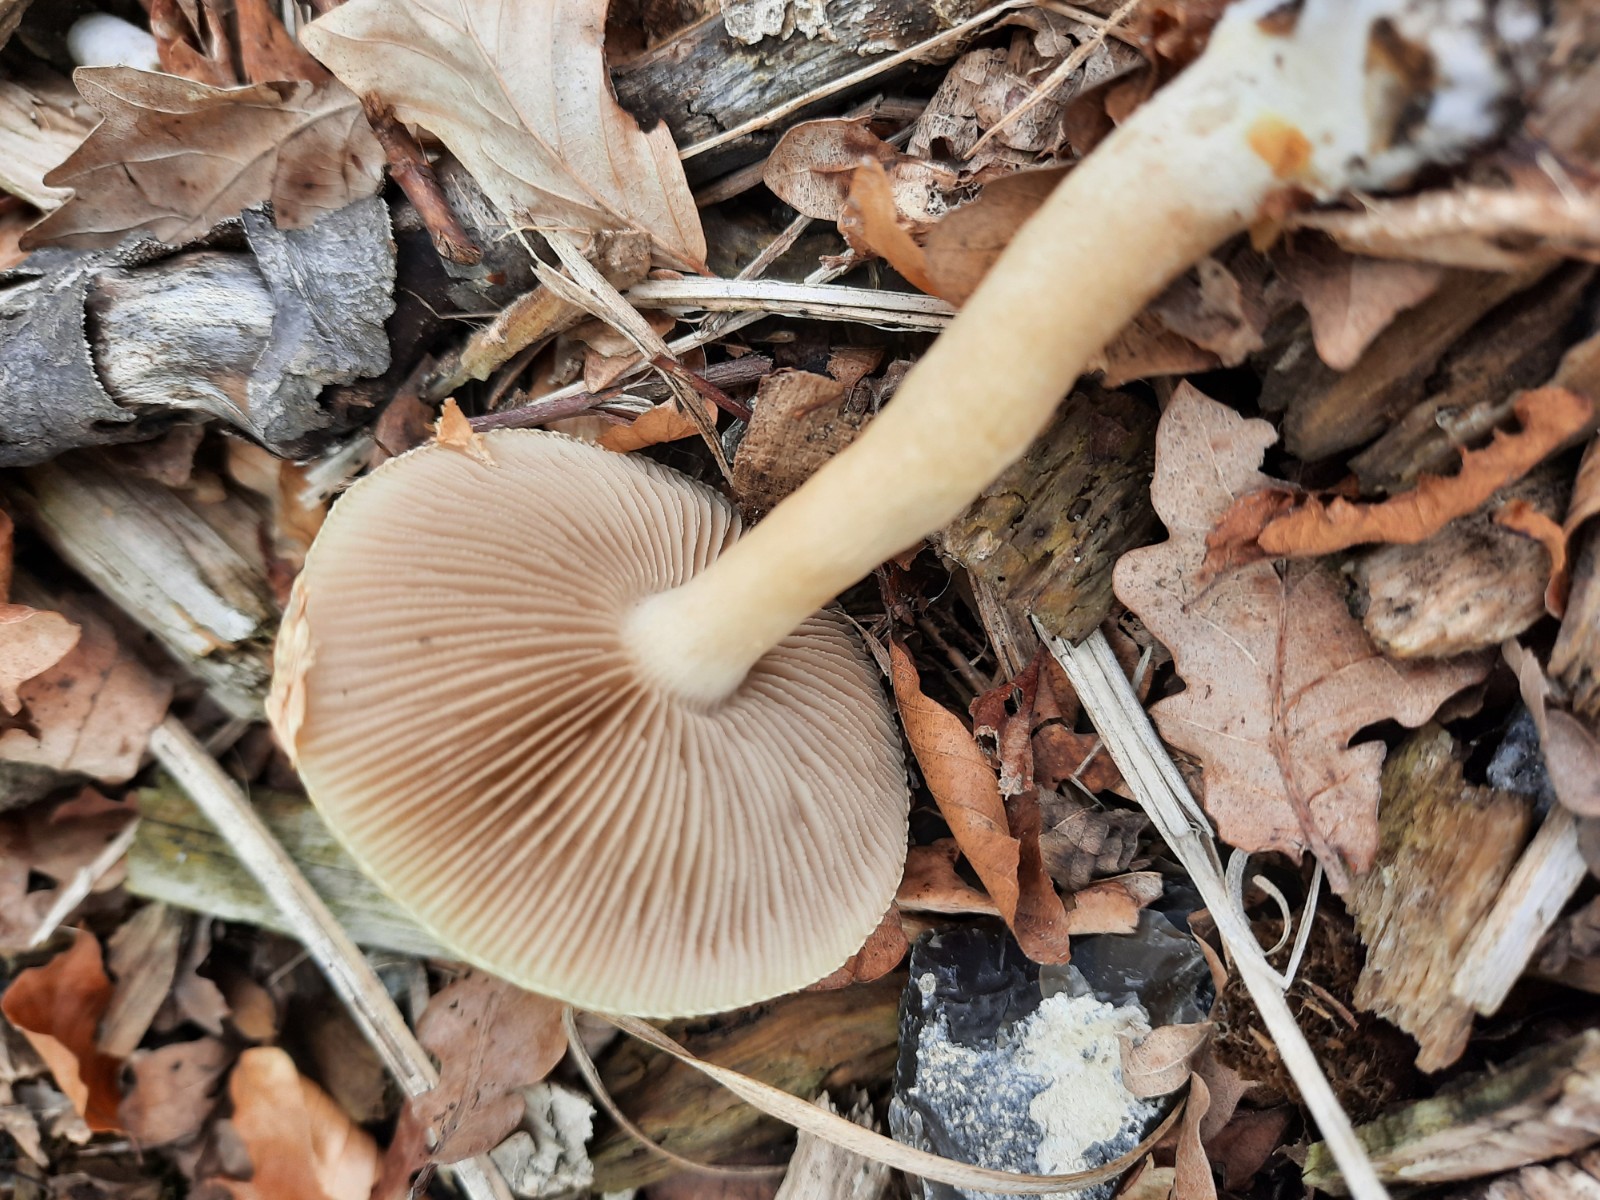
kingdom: Fungi
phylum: Basidiomycota
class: Agaricomycetes
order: Agaricales
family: Strophariaceae
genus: Agrocybe
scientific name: Agrocybe praecox
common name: tidlig agerhat
